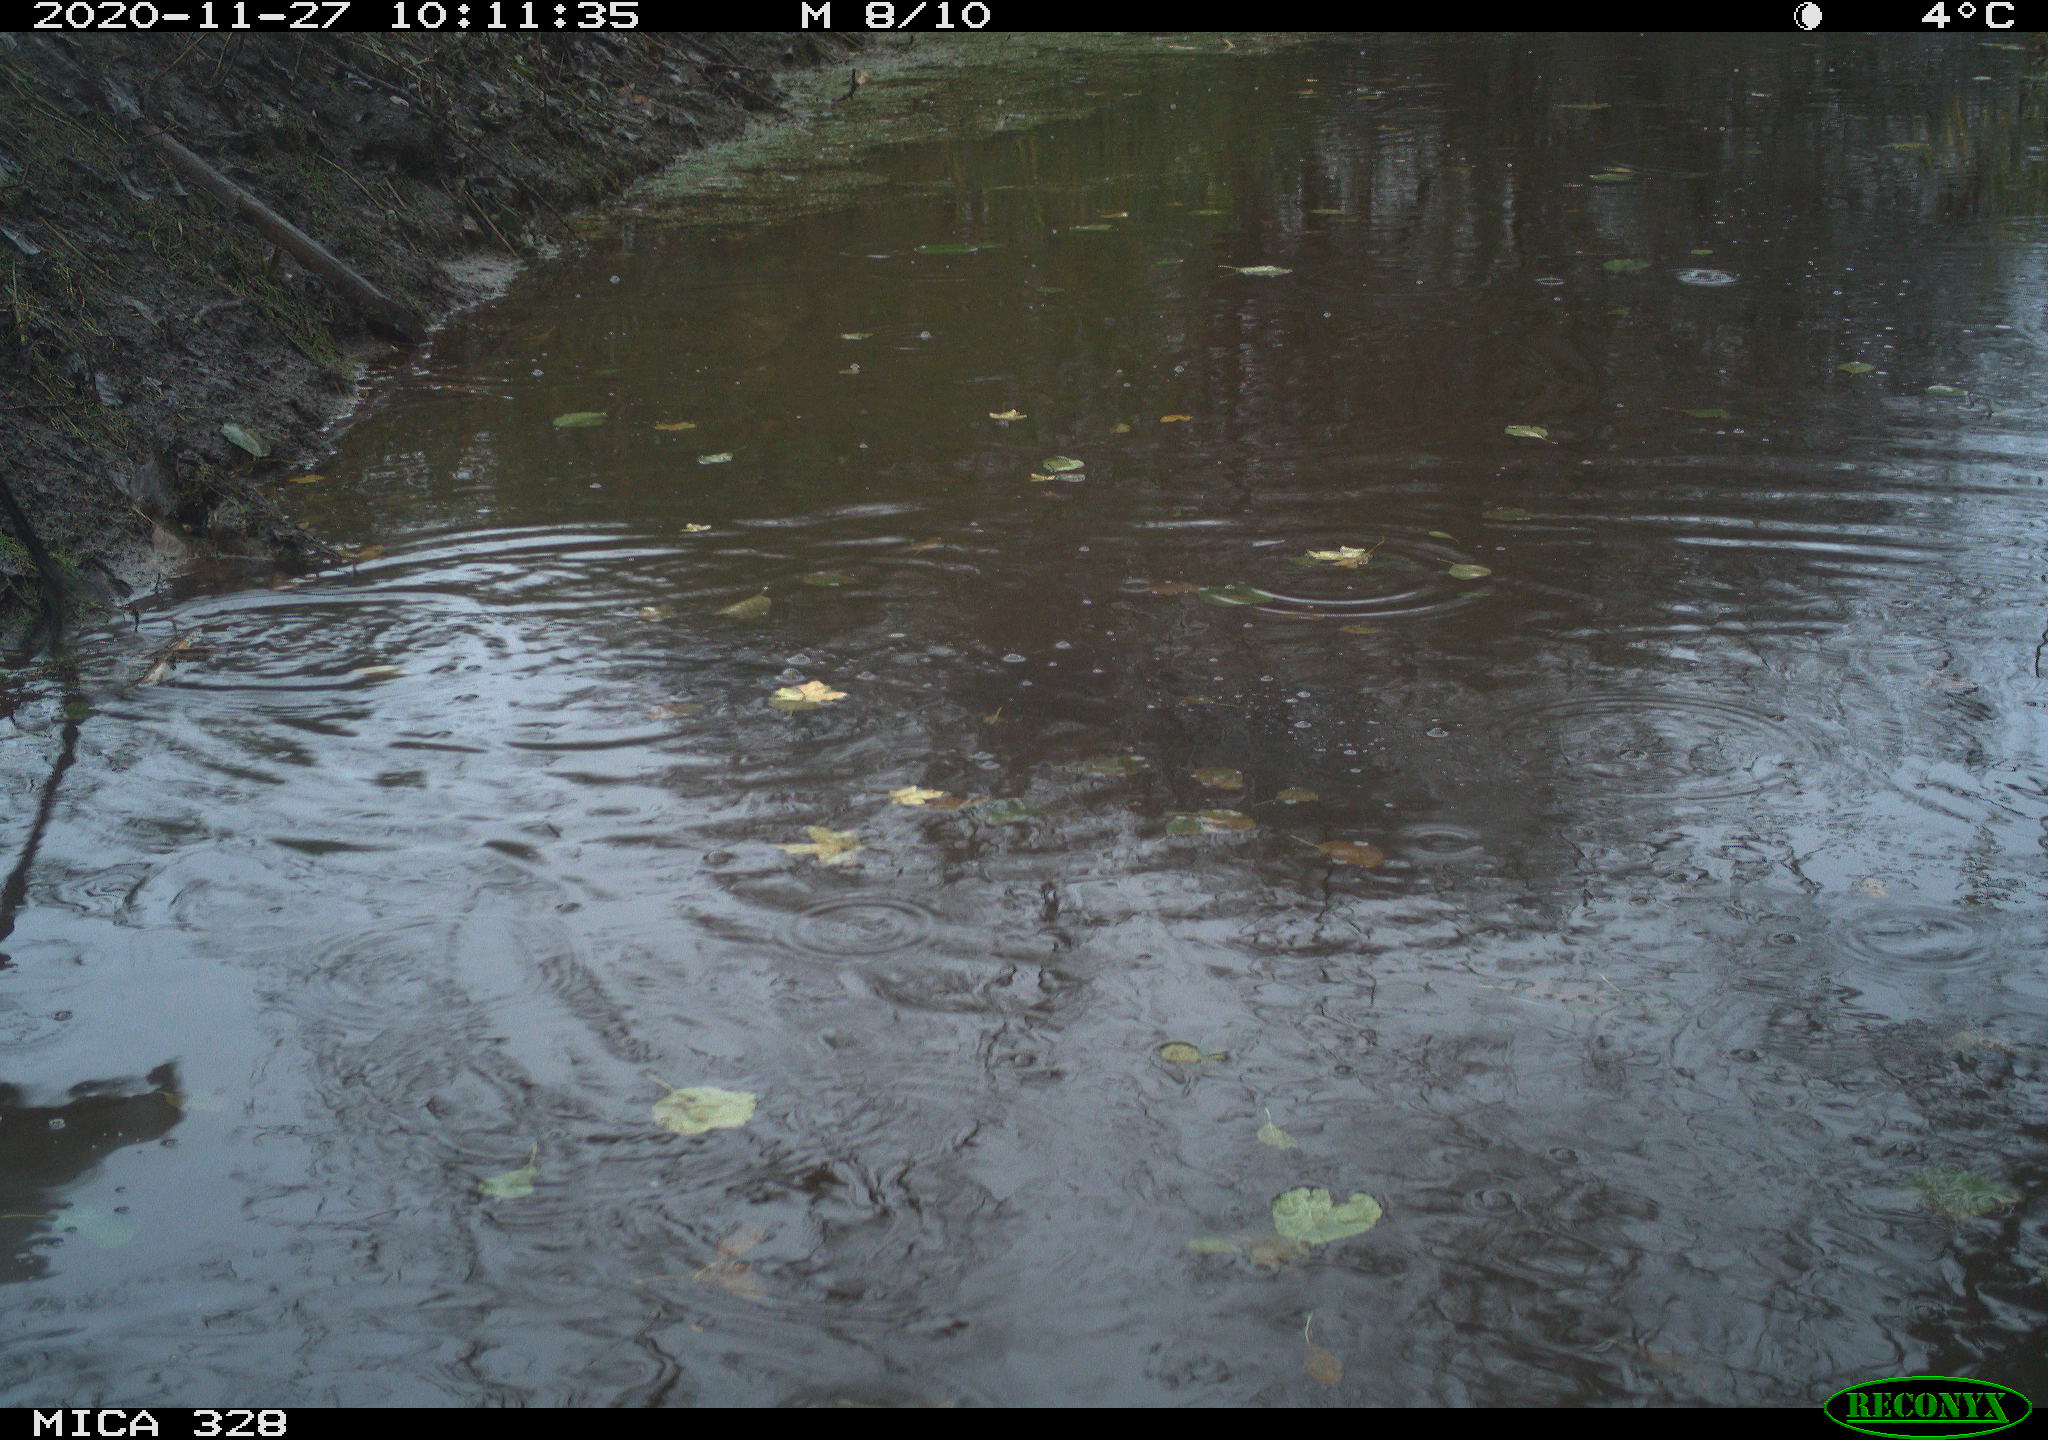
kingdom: Animalia
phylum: Chordata
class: Aves
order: Pelecaniformes
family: Ardeidae
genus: Ardea
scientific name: Ardea alba
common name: Great egret
